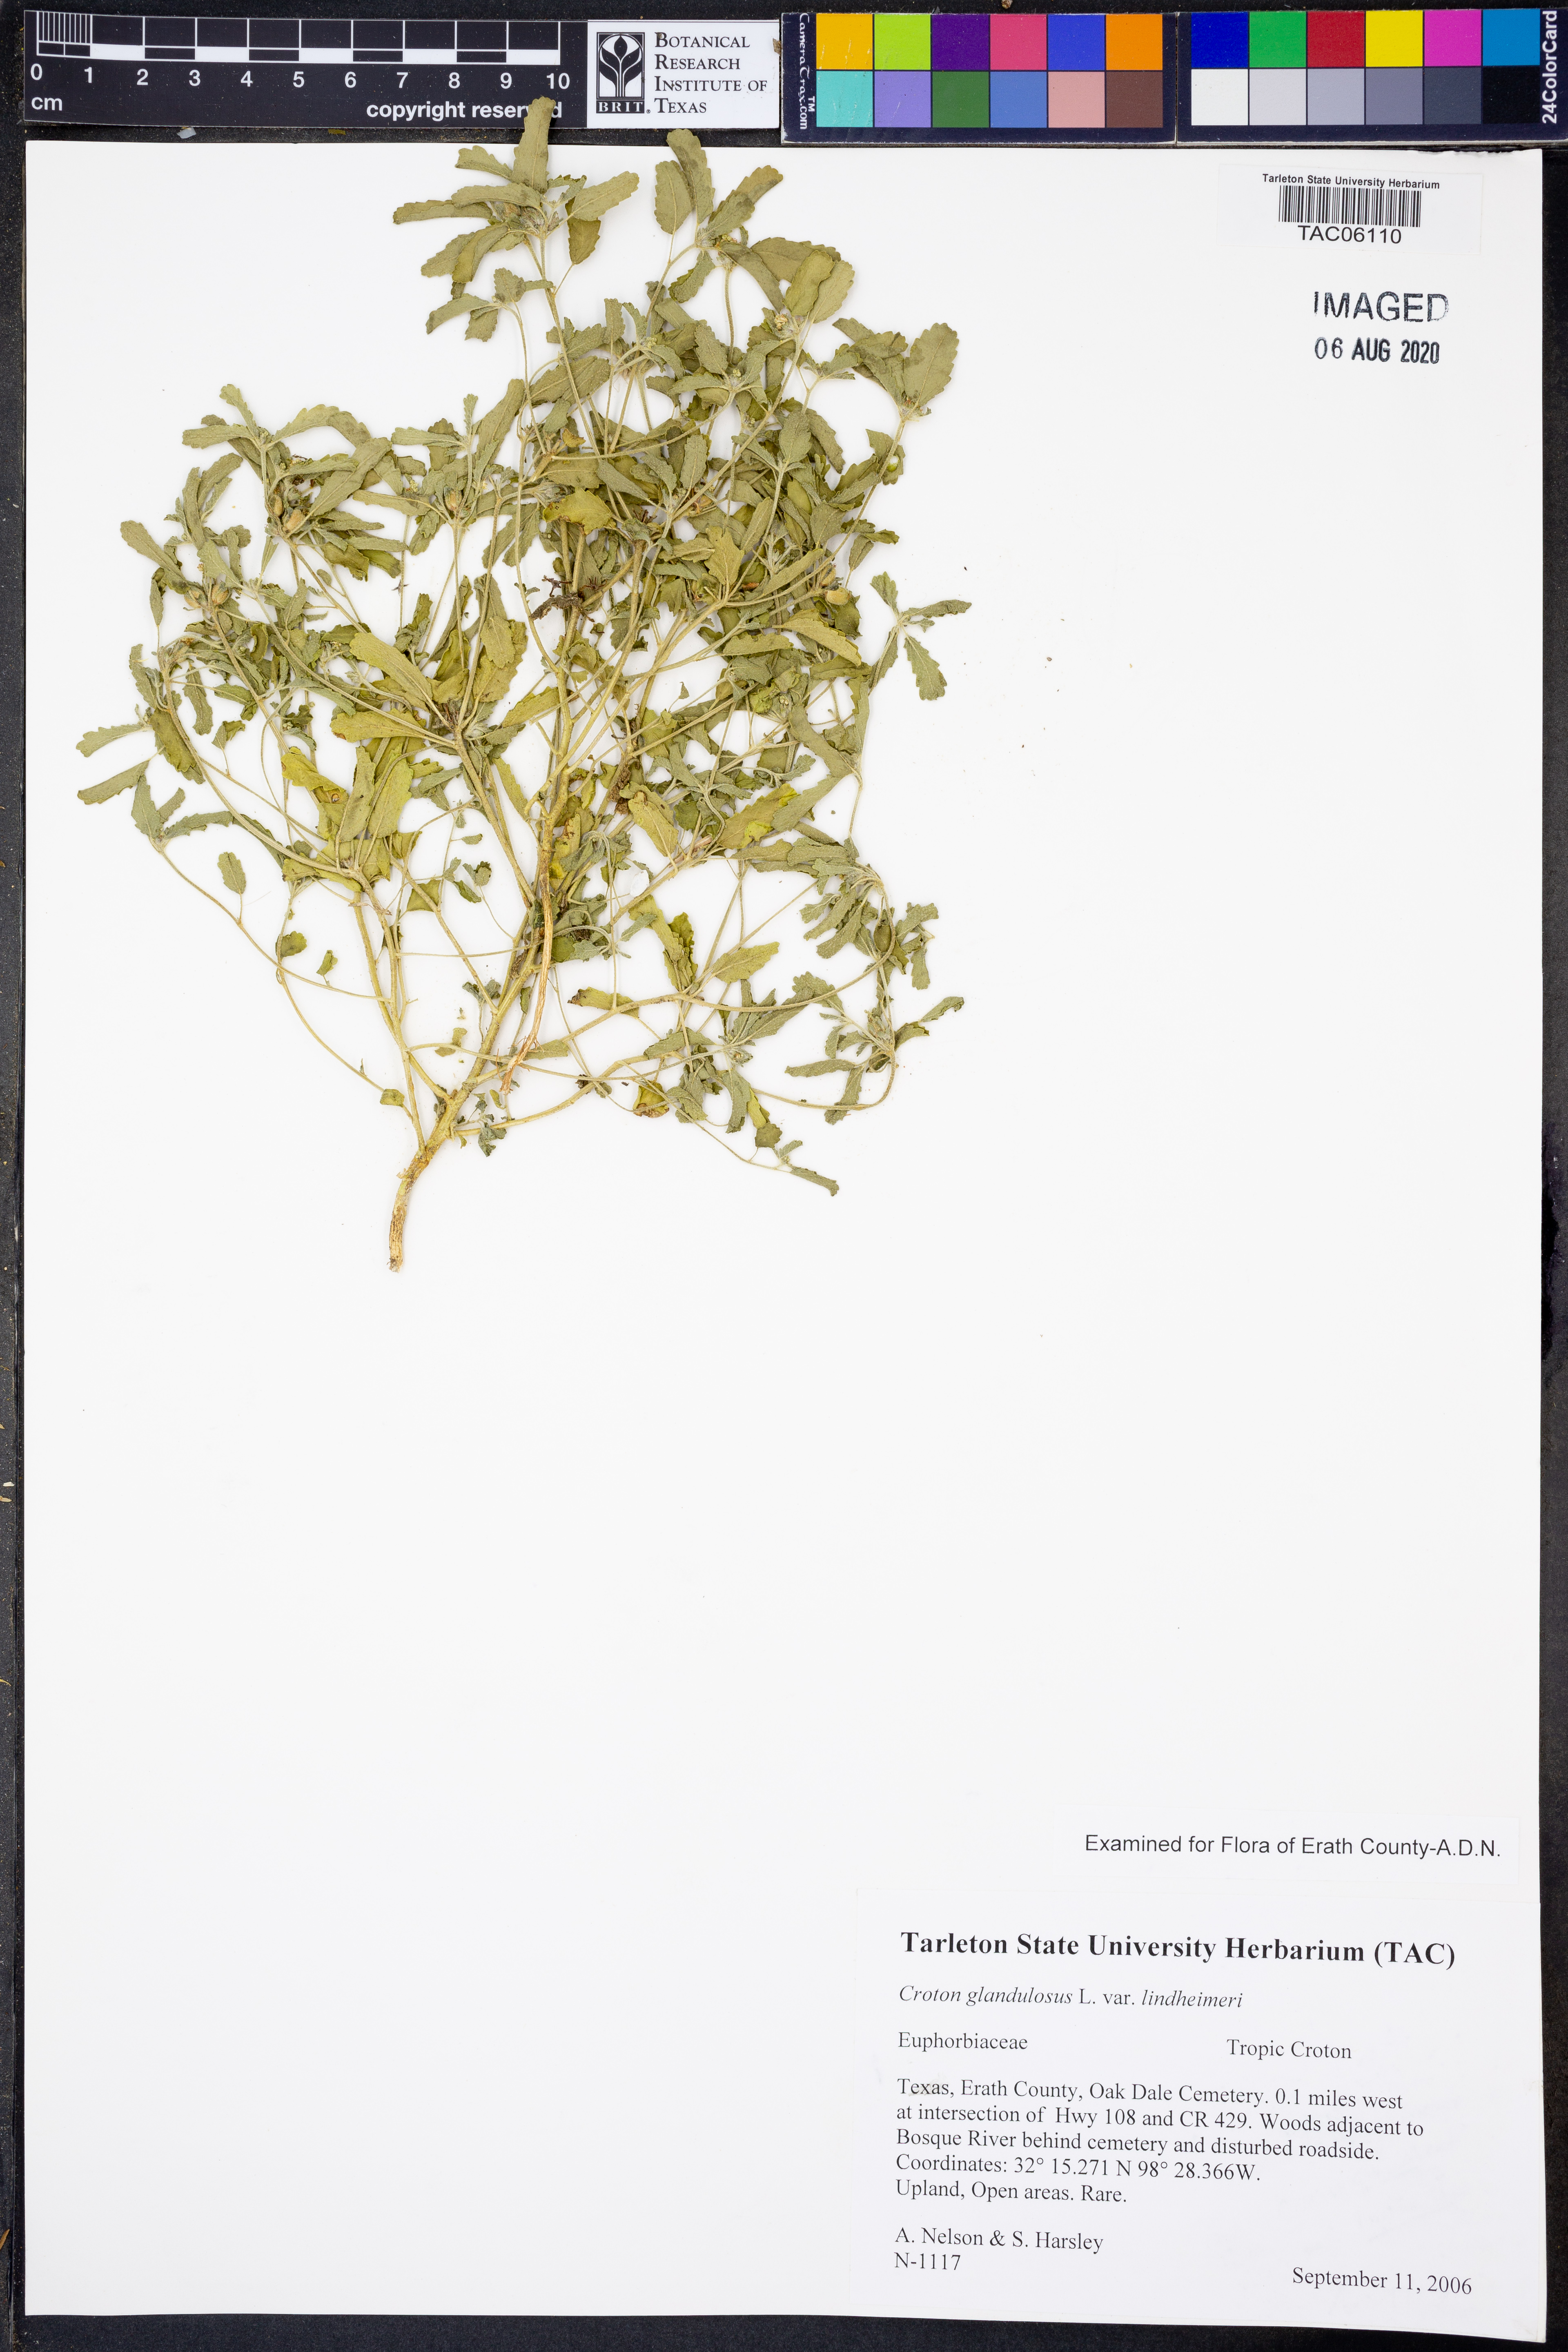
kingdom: Plantae
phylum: Tracheophyta
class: Magnoliopsida
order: Malpighiales
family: Euphorbiaceae
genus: Croton
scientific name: Croton glandulosus
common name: Tropic croton
